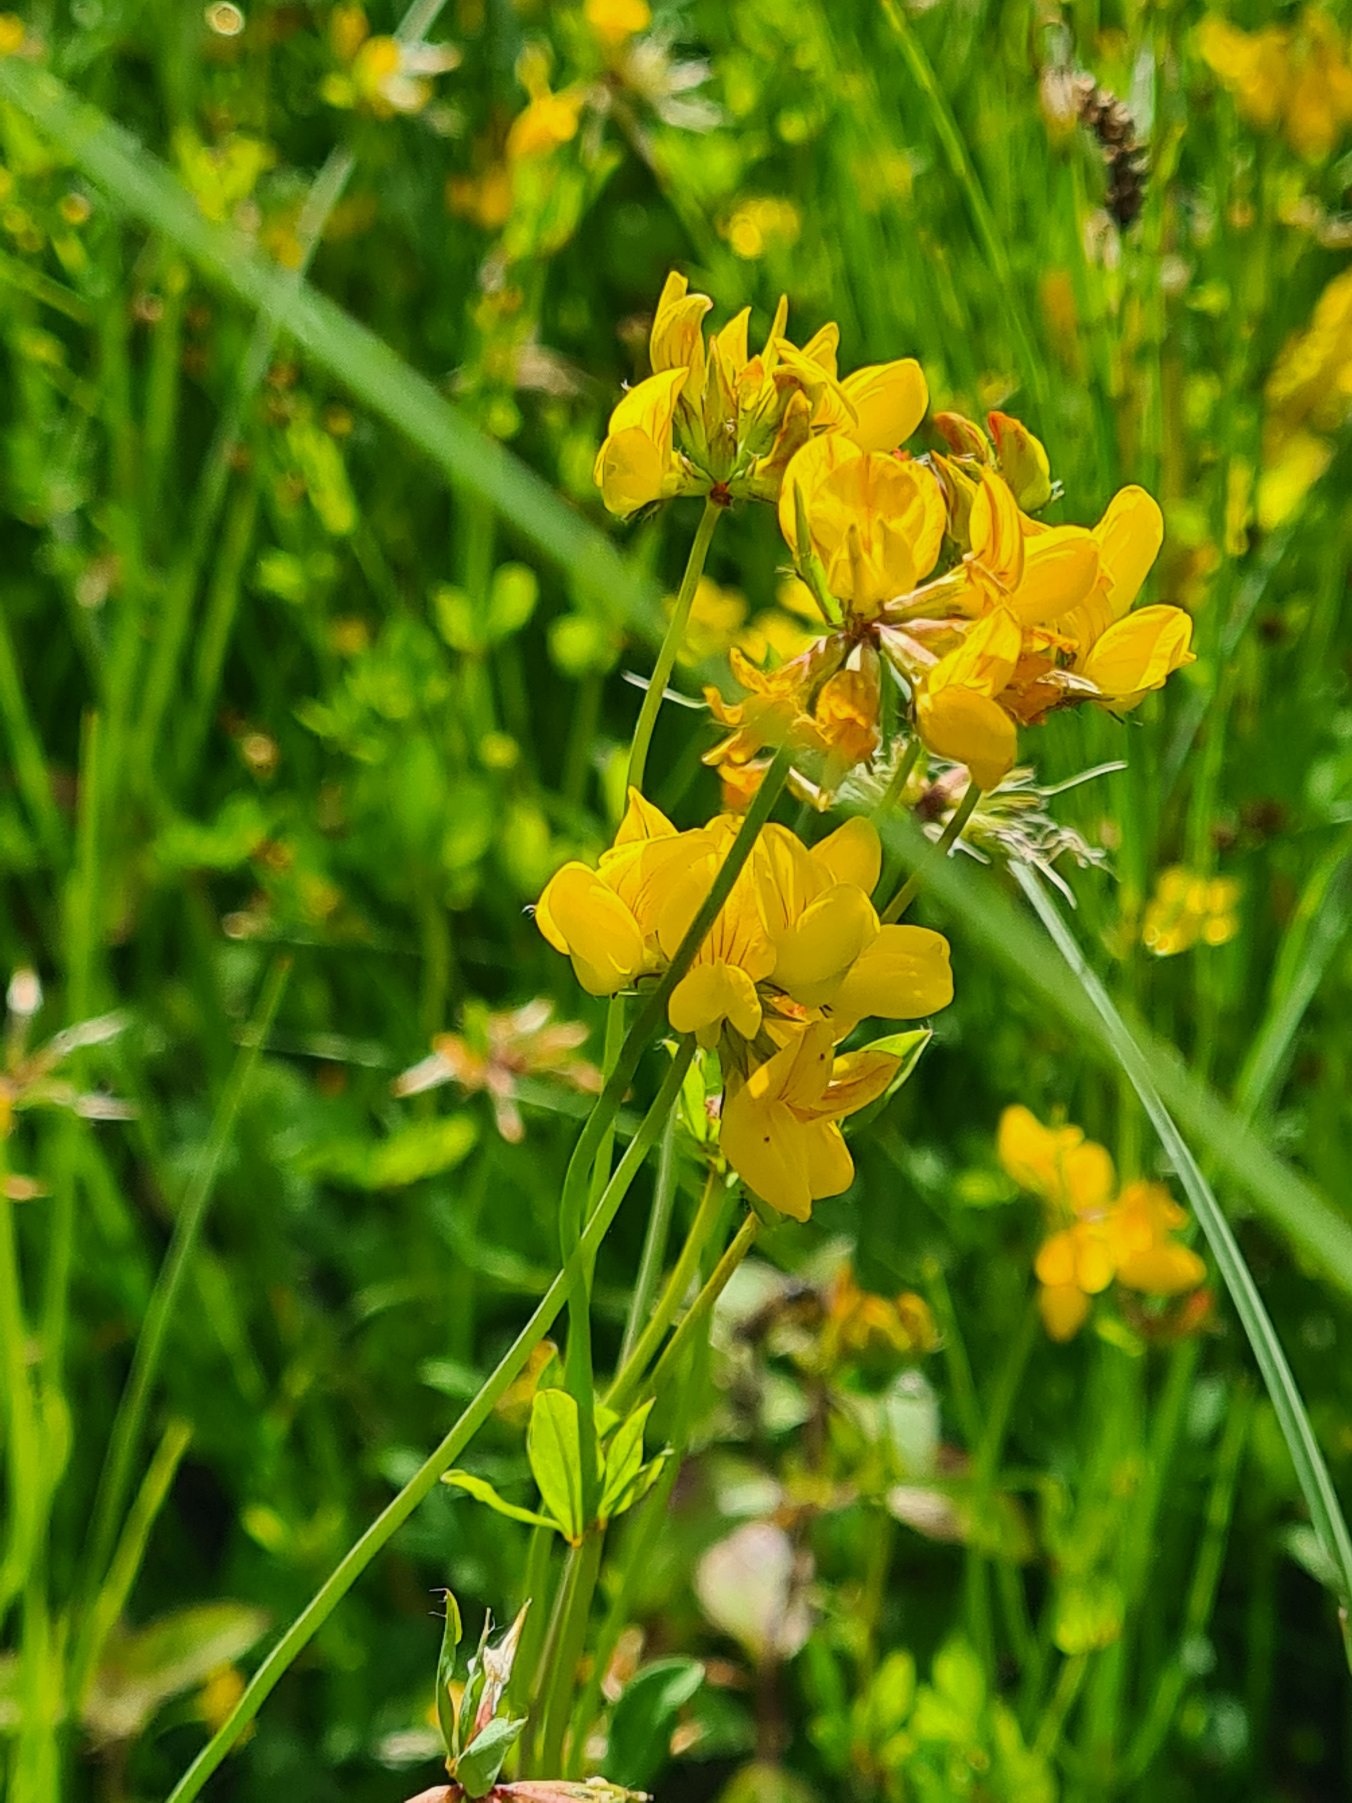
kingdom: Plantae
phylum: Tracheophyta
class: Magnoliopsida
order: Fabales
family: Fabaceae
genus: Lotus
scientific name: Lotus corniculatus
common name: Almindelig kællingetand
